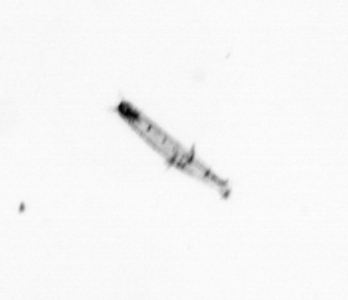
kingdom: Animalia
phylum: Arthropoda
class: Copepoda
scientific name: Copepoda
